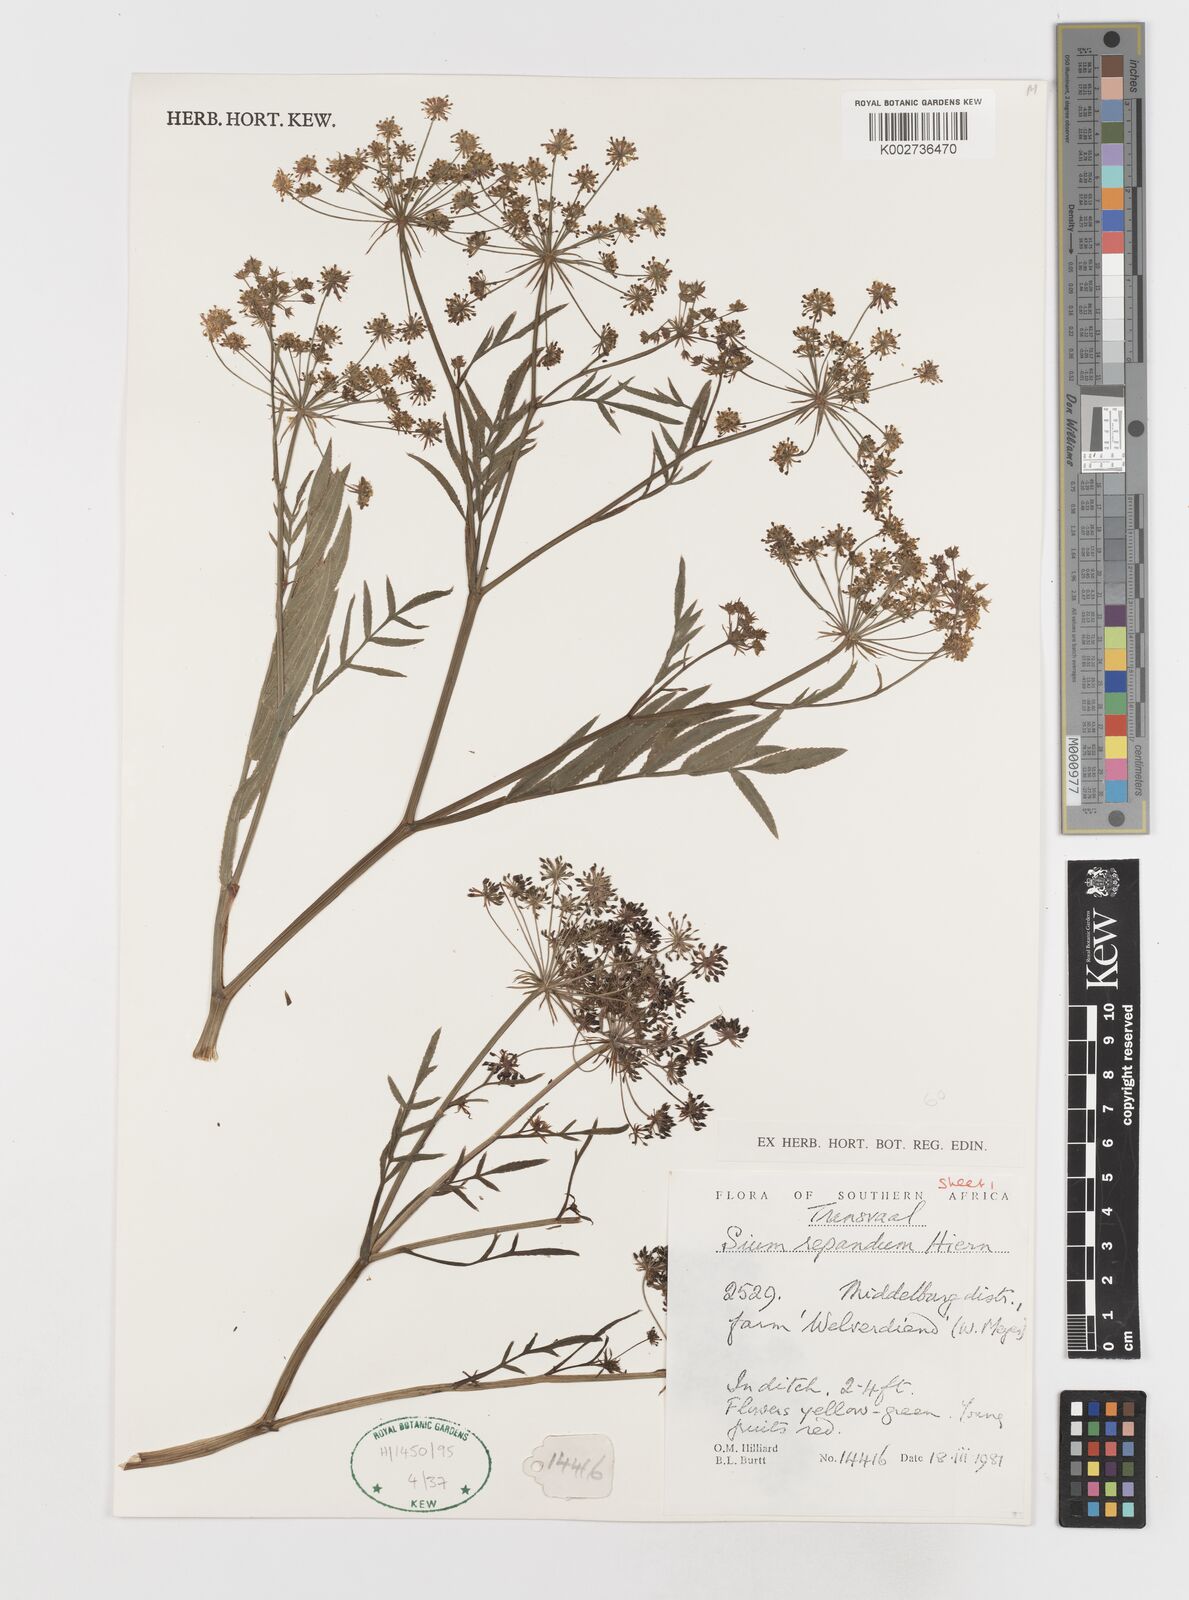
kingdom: Plantae
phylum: Tracheophyta
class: Magnoliopsida
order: Apiales
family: Apiaceae
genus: Berula
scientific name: Berula repanda
